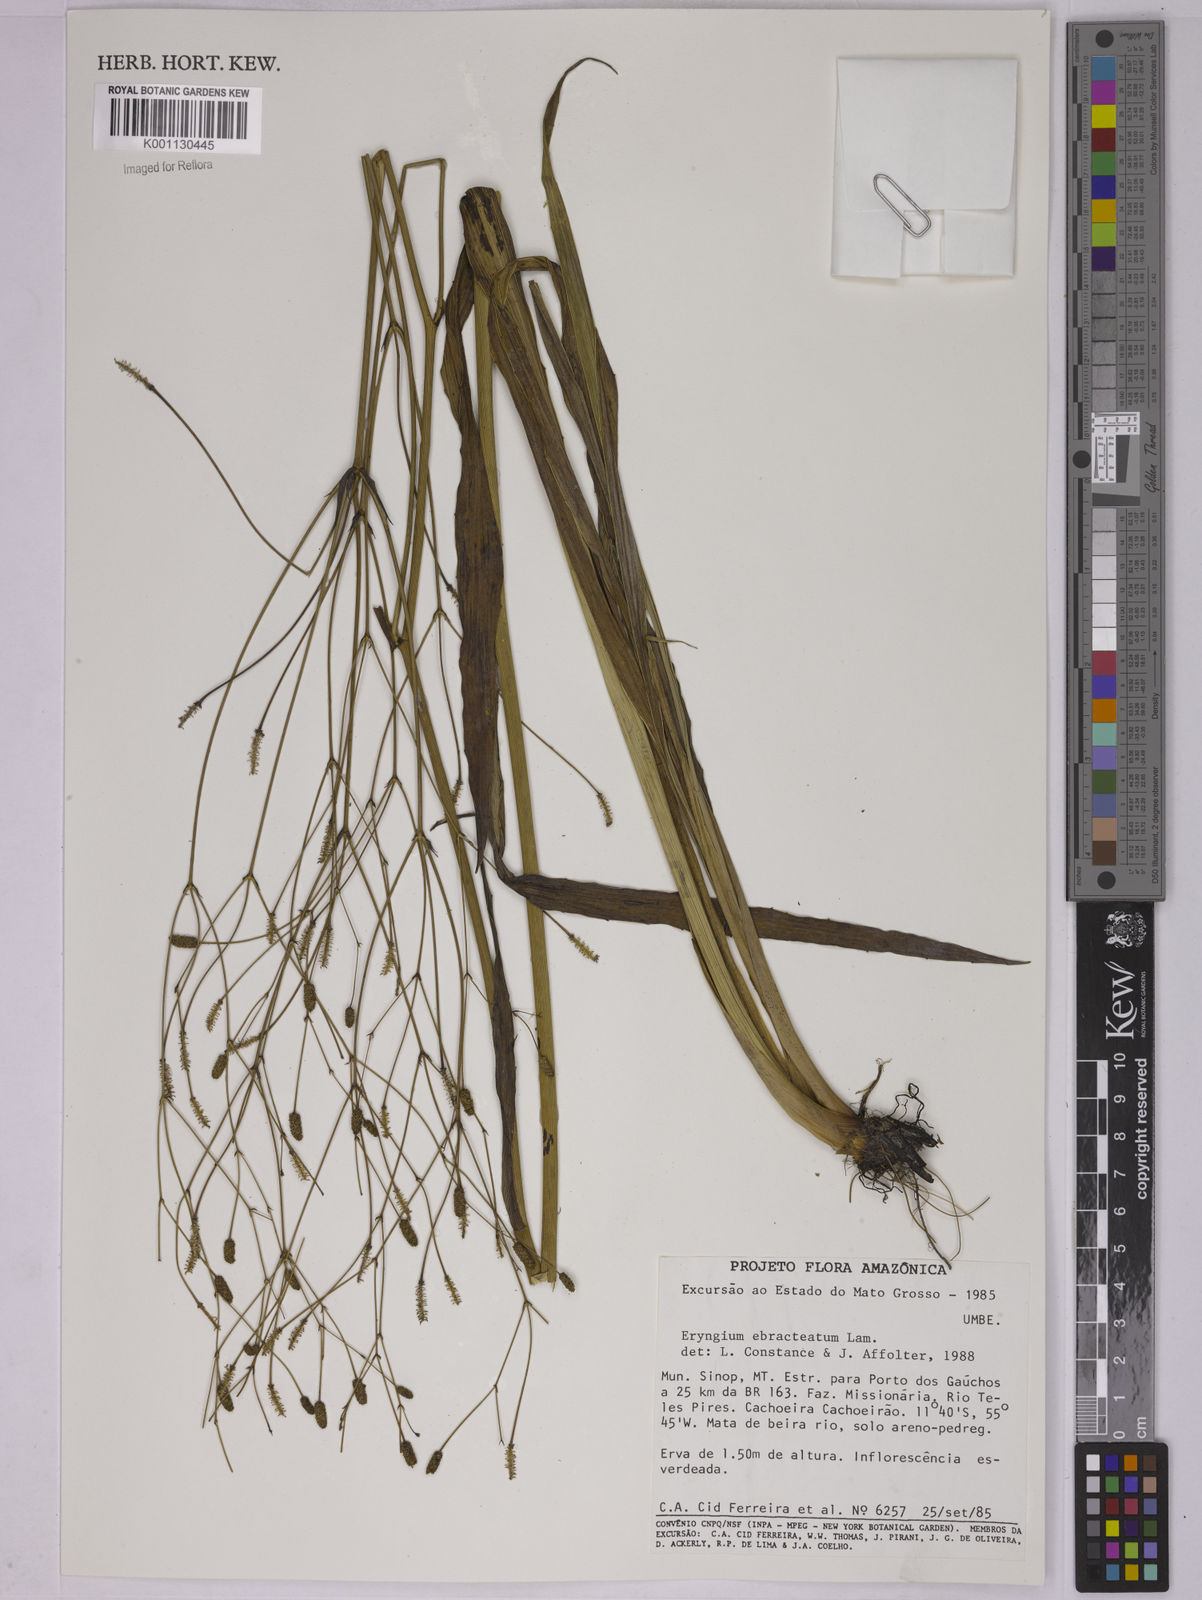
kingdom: Plantae
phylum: Tracheophyta
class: Magnoliopsida
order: Apiales
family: Apiaceae
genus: Eryngium
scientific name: Eryngium ebracteatum
